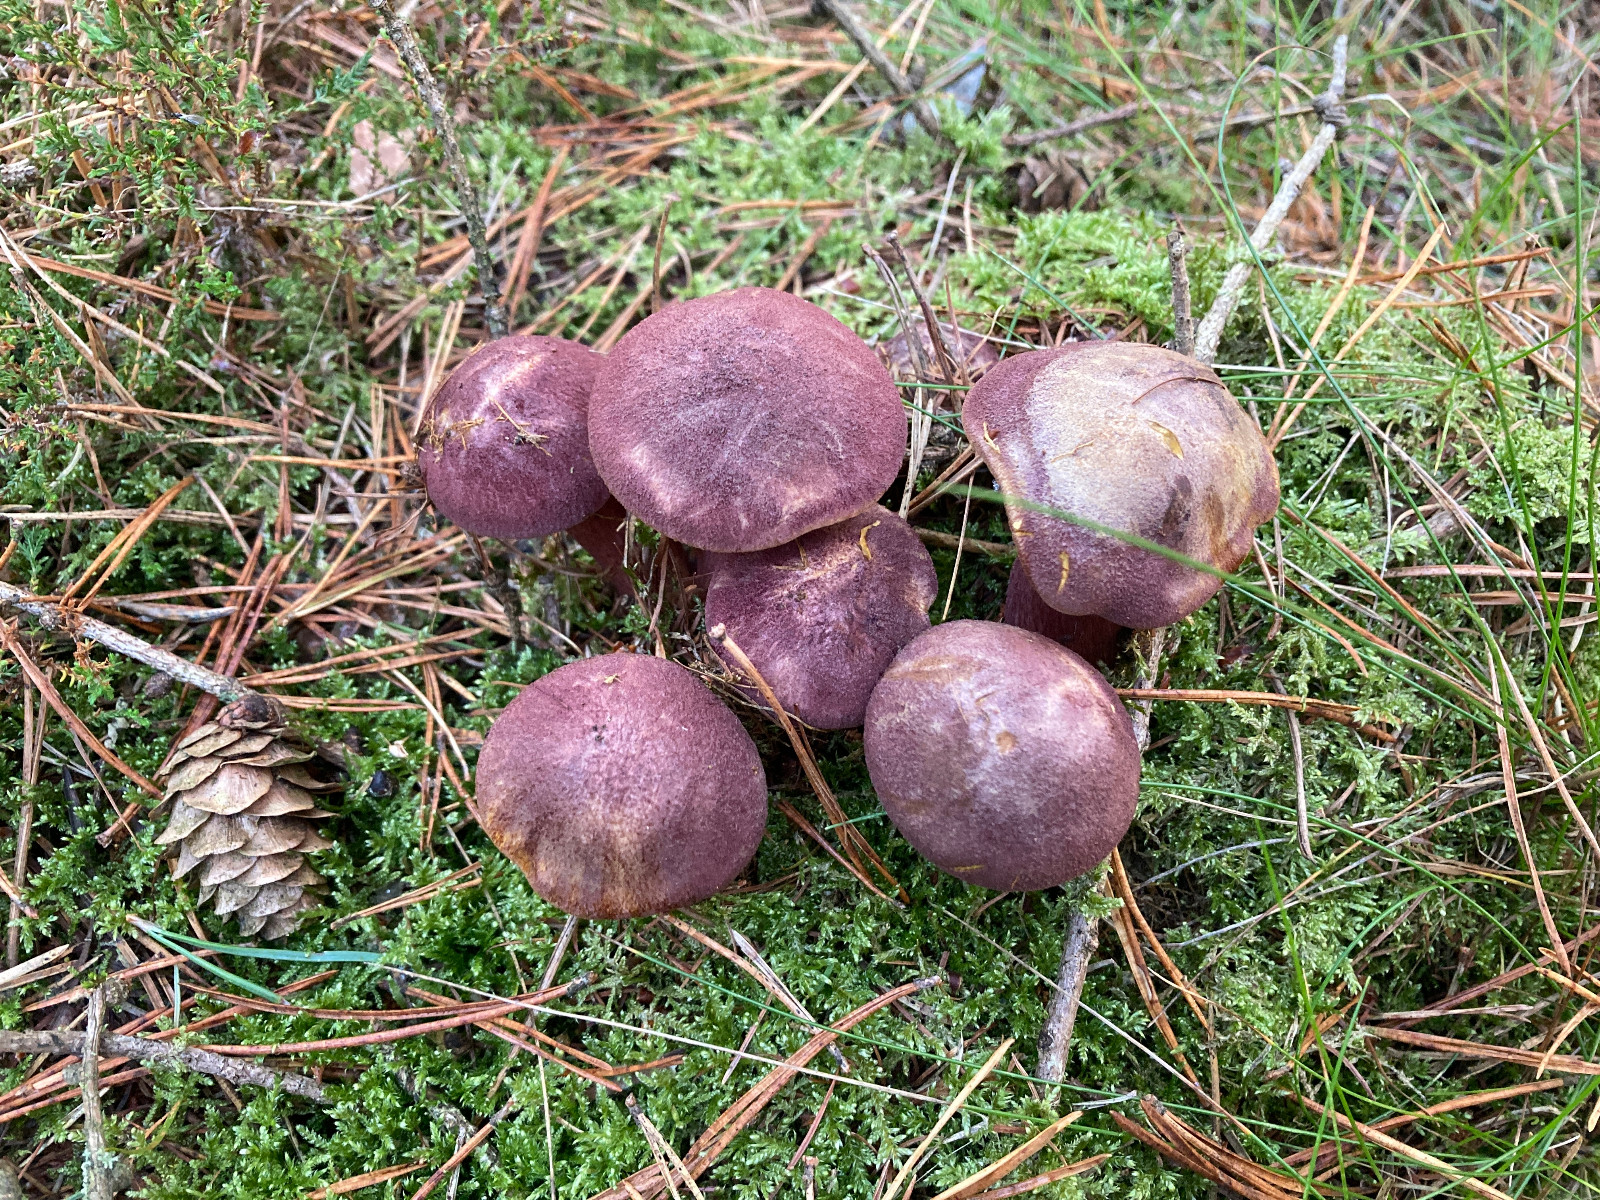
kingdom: Fungi
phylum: Basidiomycota
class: Agaricomycetes
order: Agaricales
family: Tricholomataceae
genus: Tricholomopsis
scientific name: Tricholomopsis rutilans
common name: purpur-væbnerhat
